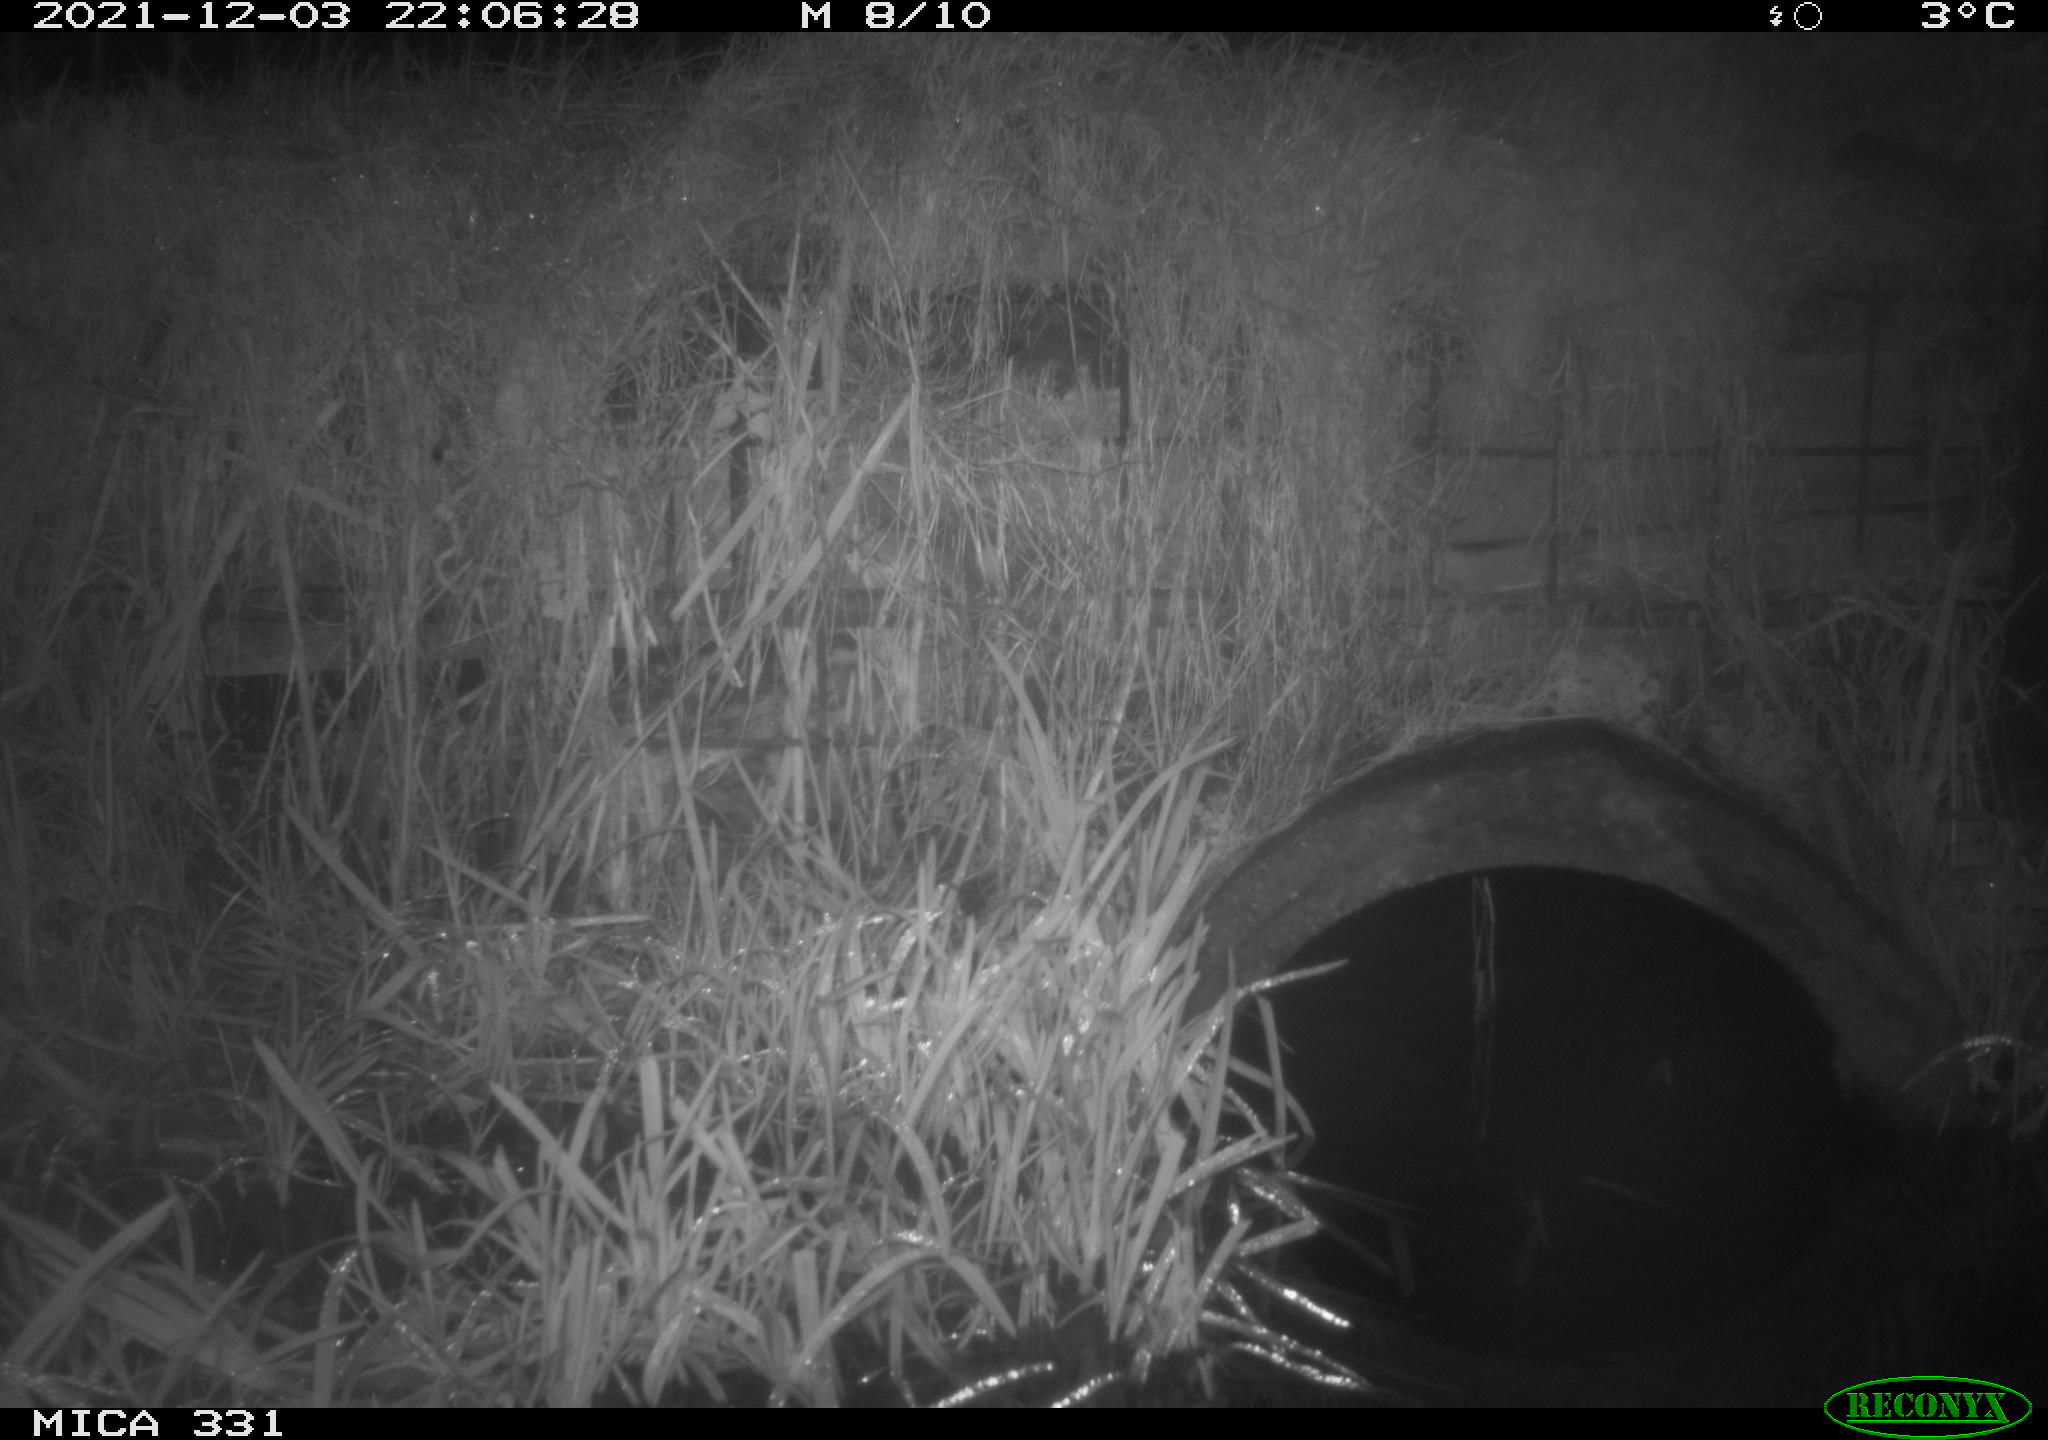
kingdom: Animalia
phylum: Chordata
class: Mammalia
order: Rodentia
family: Muridae
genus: Rattus
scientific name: Rattus norvegicus
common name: Brown rat
